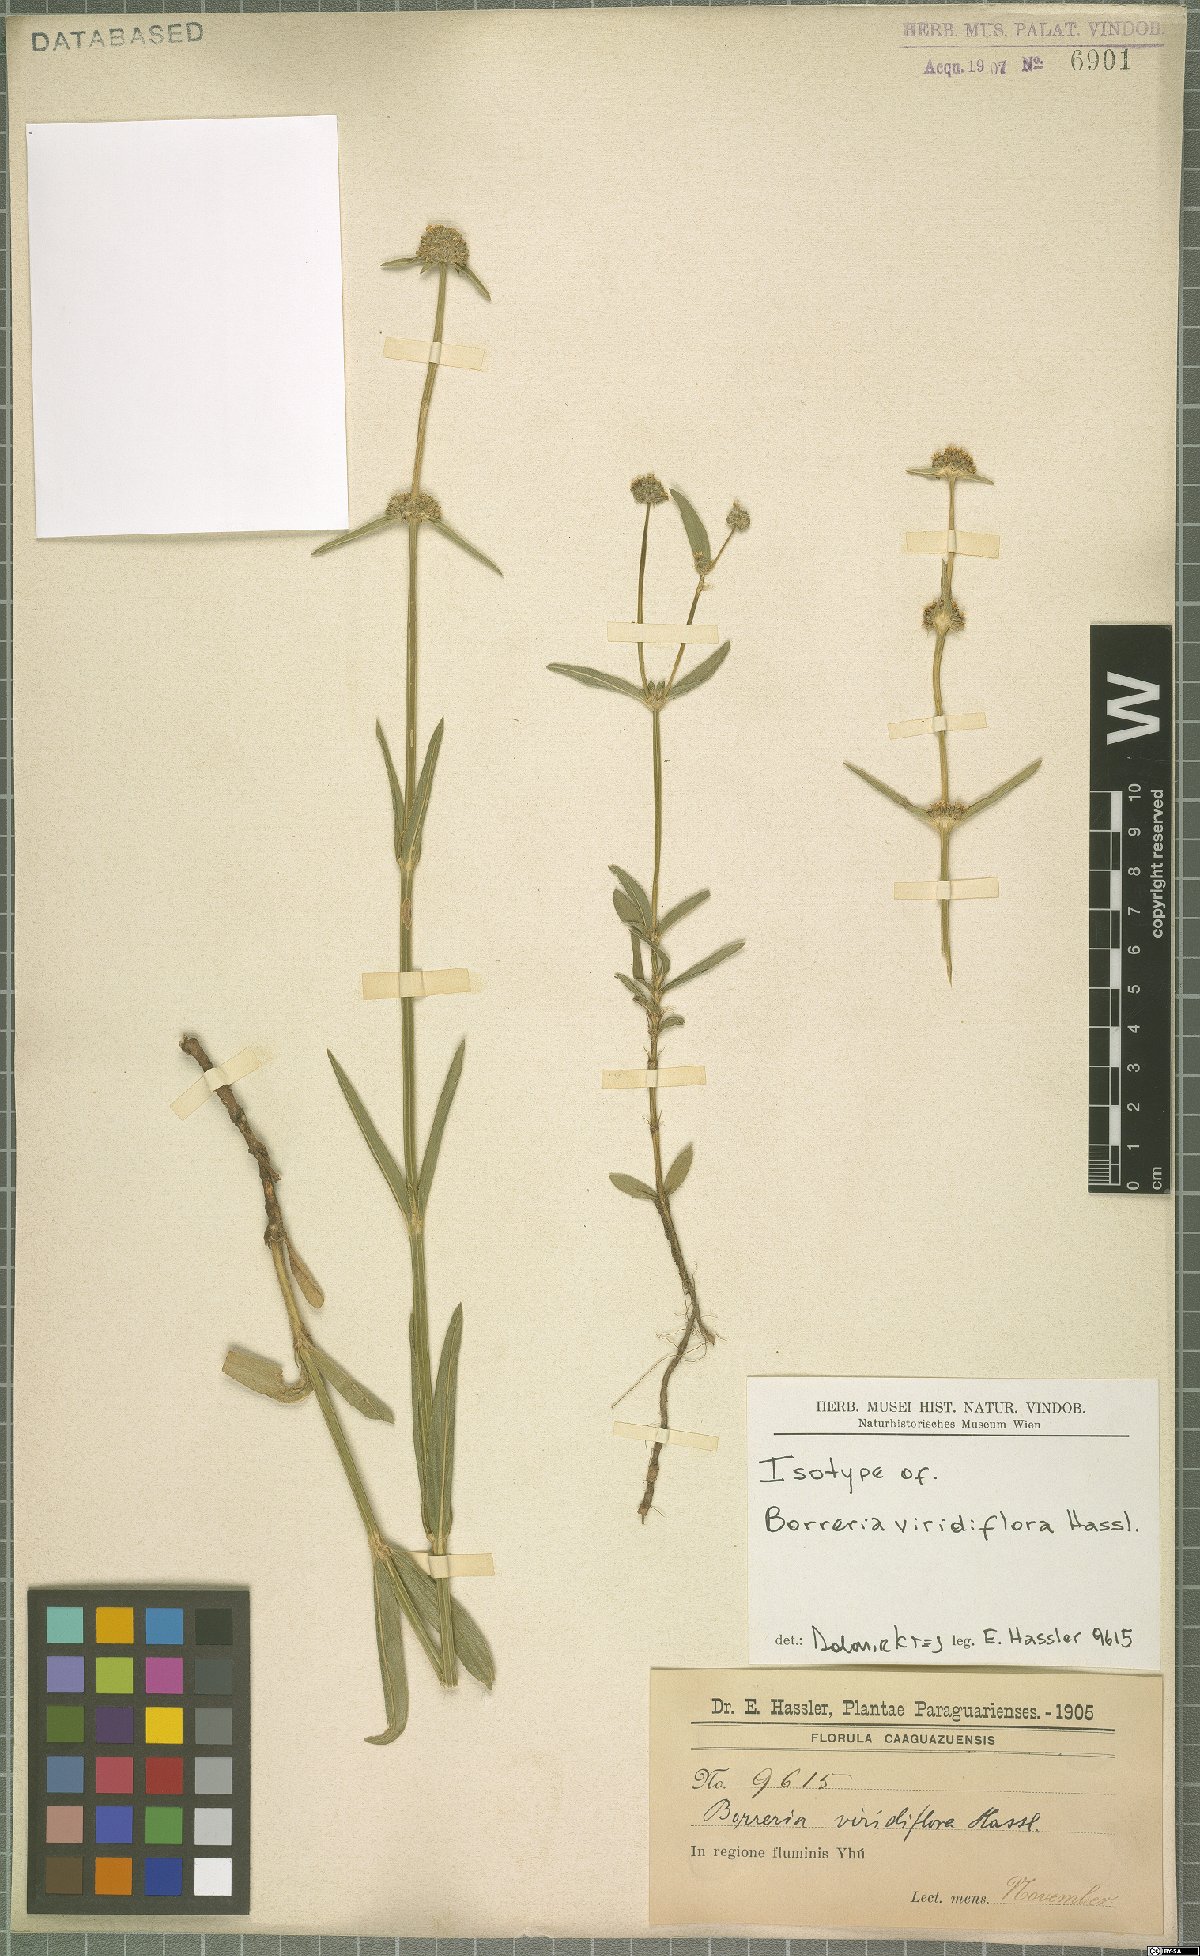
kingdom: Plantae
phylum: Tracheophyta
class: Magnoliopsida
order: Gentianales
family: Rubiaceae
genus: Spermacoce
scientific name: Spermacoce viridiflora
